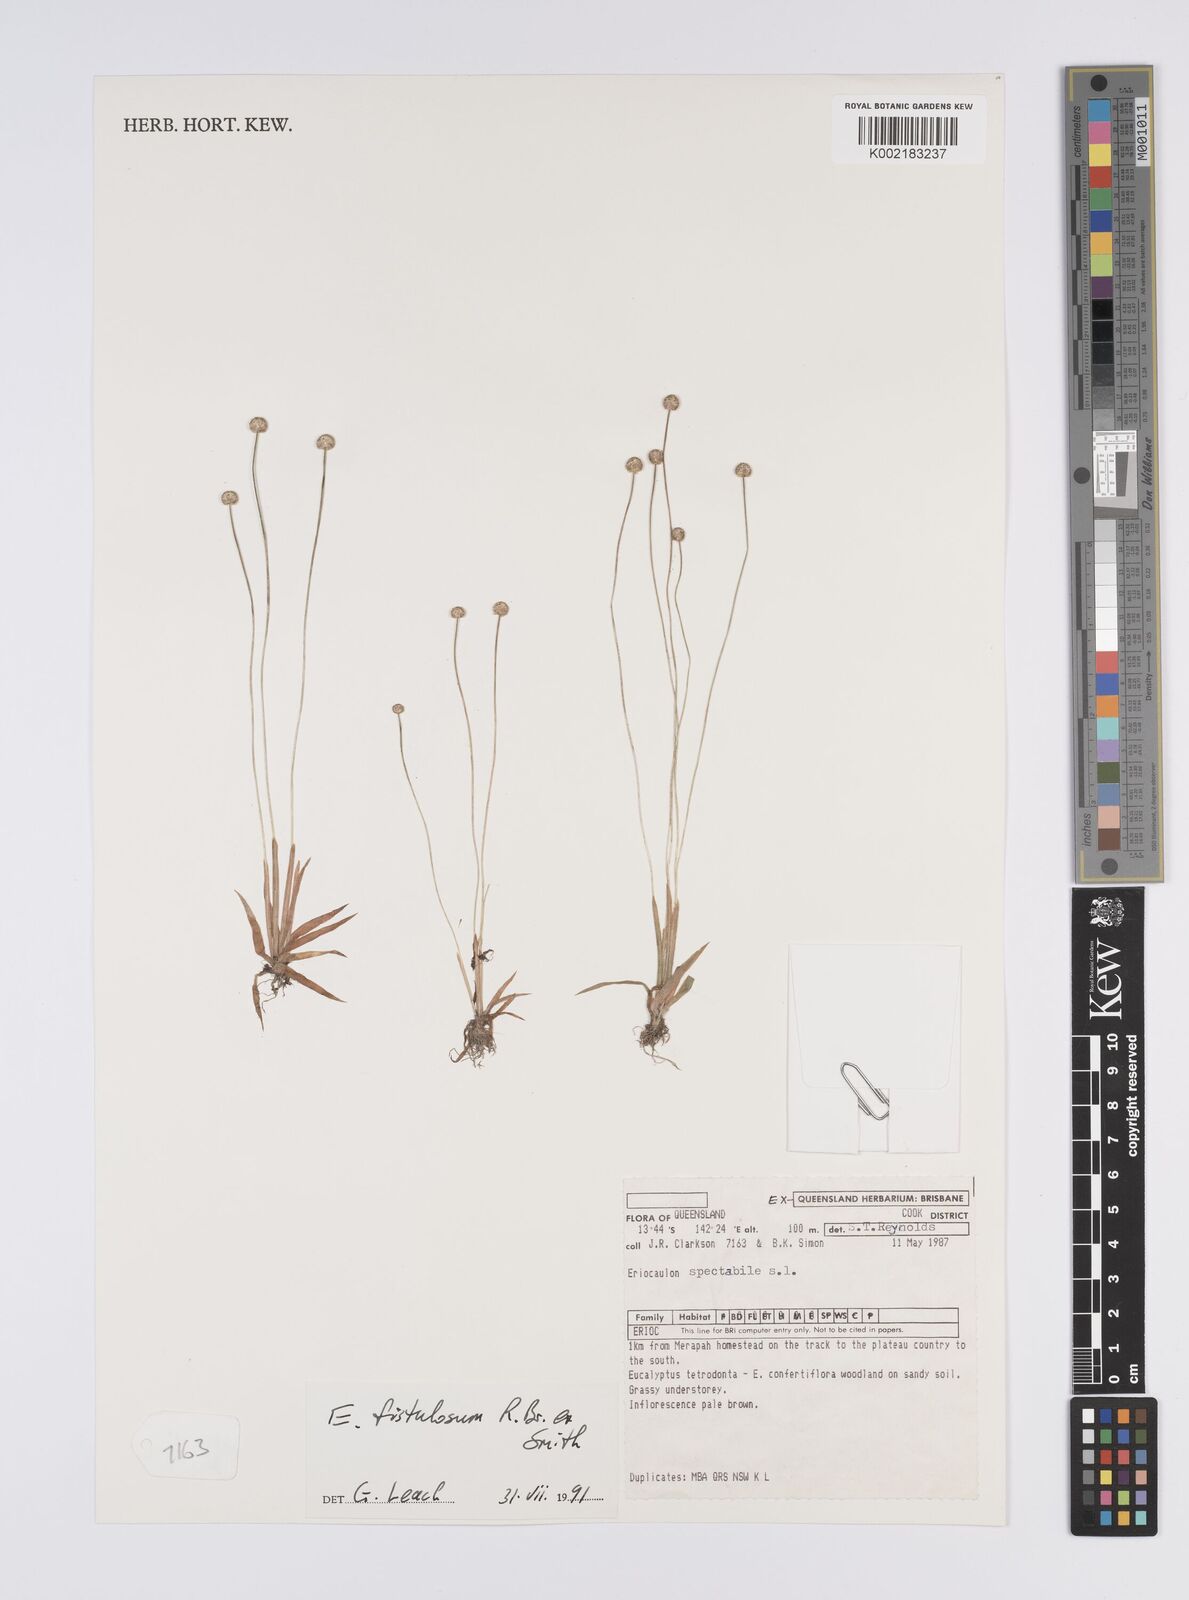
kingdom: Plantae
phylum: Tracheophyta
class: Liliopsida
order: Poales
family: Eriocaulaceae
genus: Eriocaulon
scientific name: Eriocaulon fistulosum
